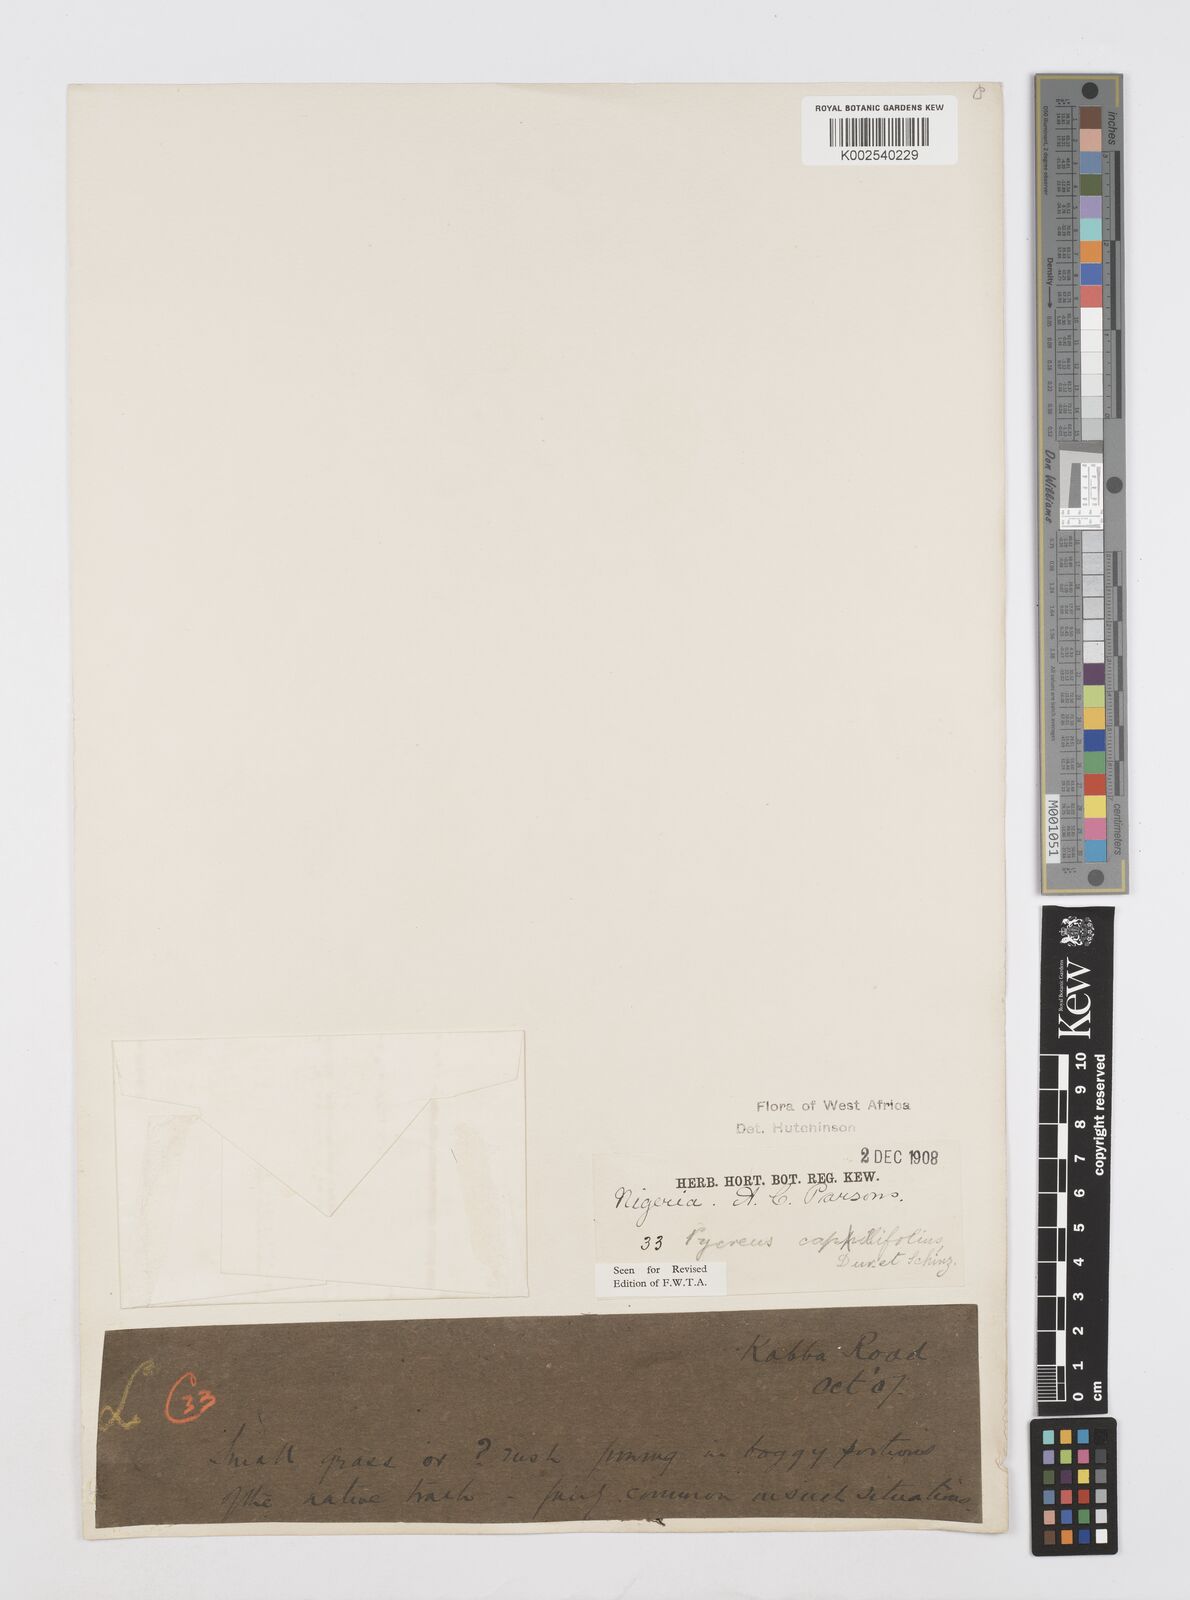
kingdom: Plantae
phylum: Tracheophyta
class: Liliopsida
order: Poales
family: Cyperaceae
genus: Cyperus
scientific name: Cyperus capillifolius
